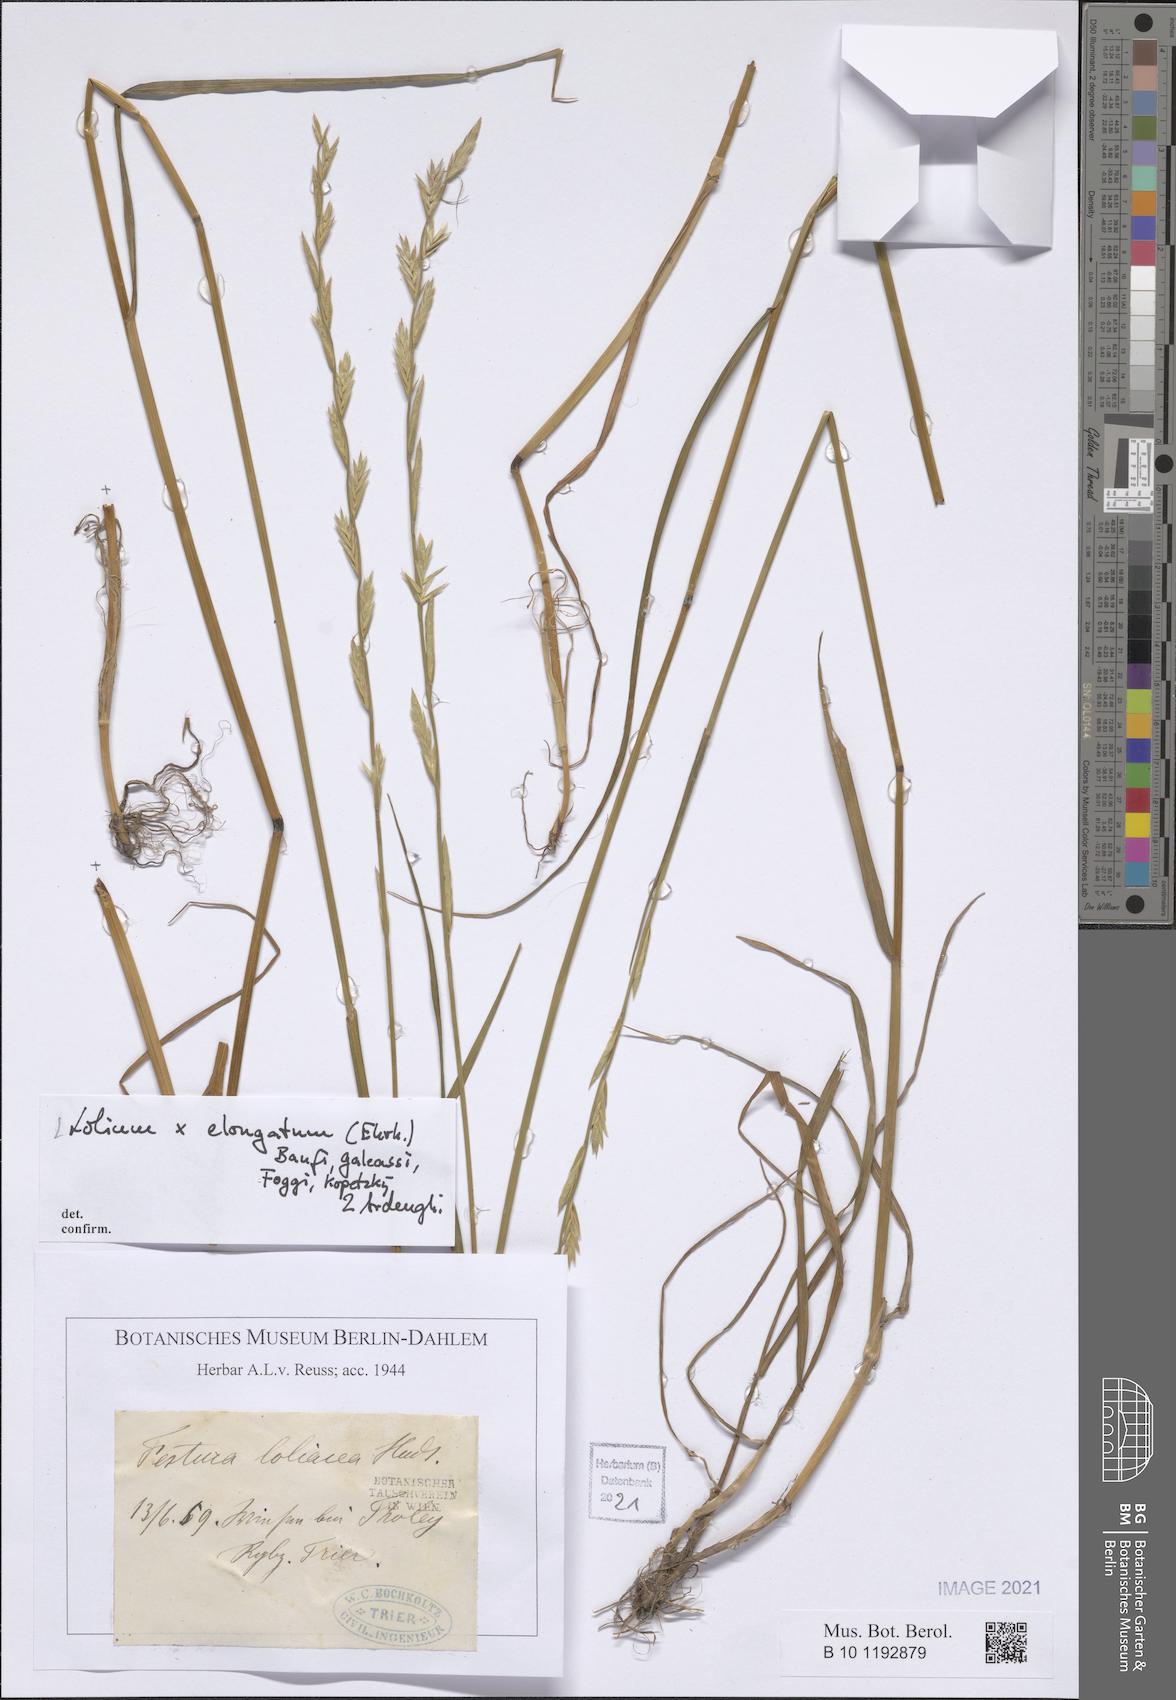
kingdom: Plantae
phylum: Tracheophyta
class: Liliopsida
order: Poales
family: Poaceae
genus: Lolium
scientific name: Lolium elongatum
